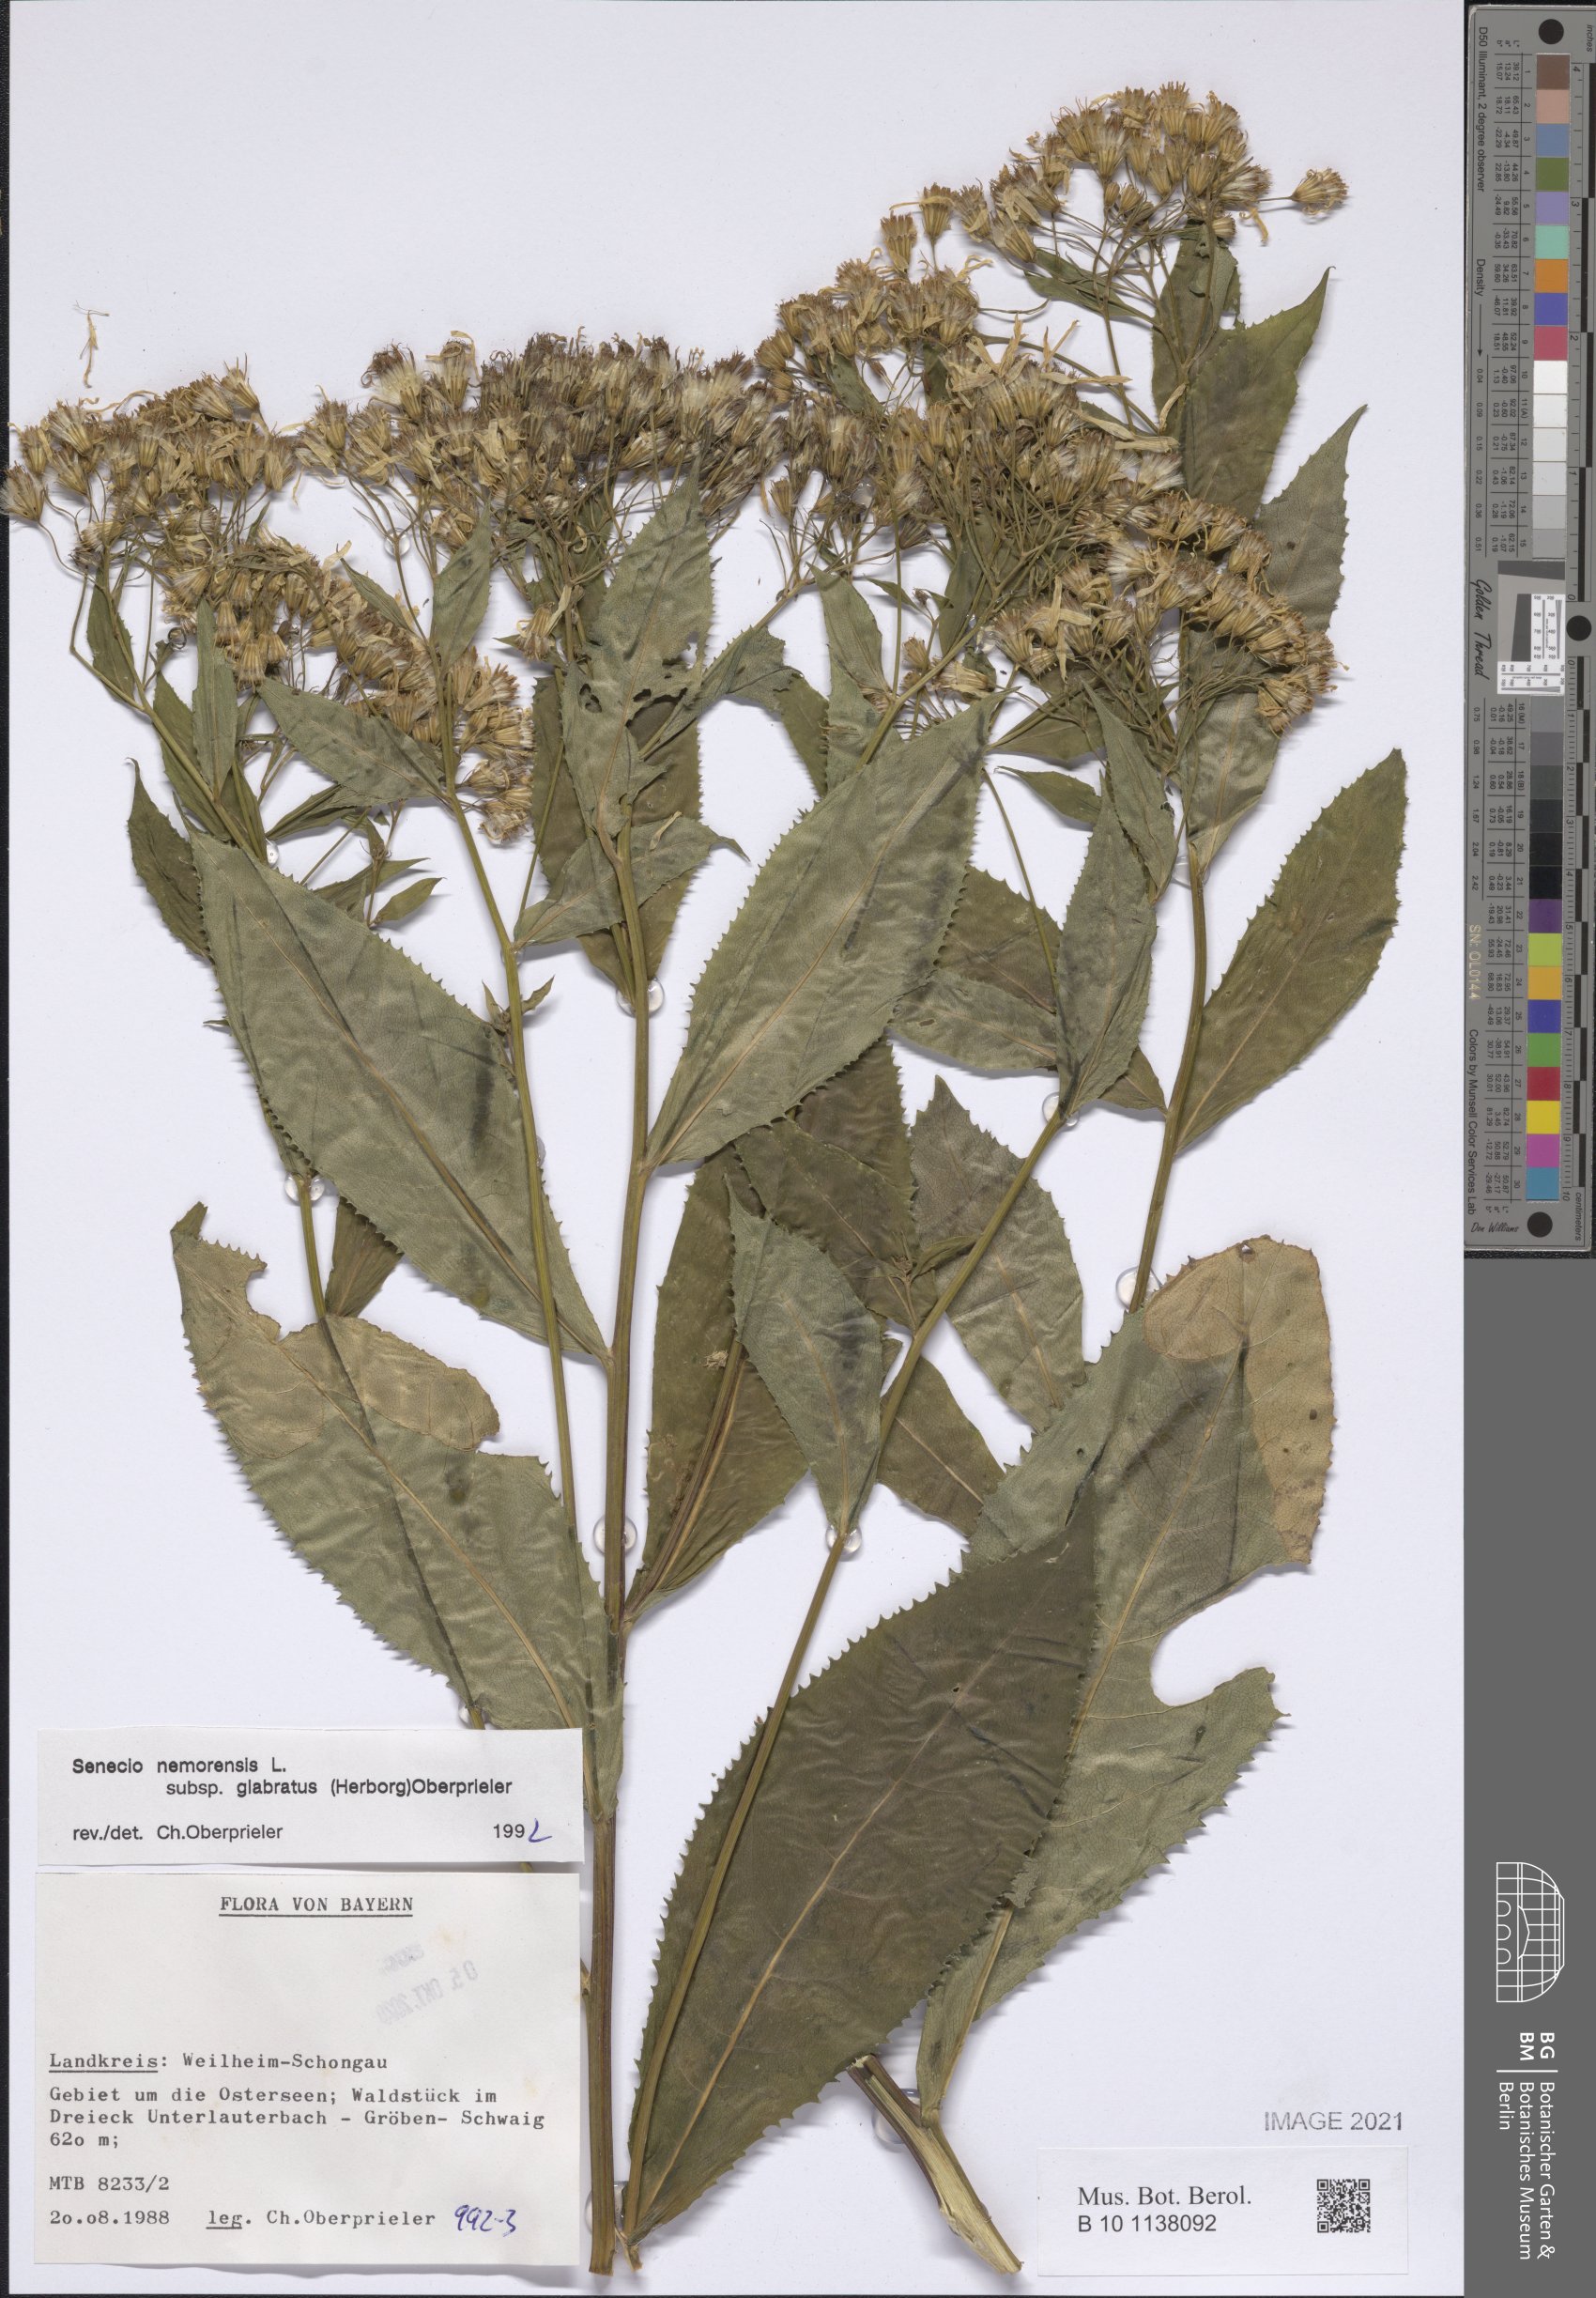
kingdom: Plantae
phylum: Tracheophyta
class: Magnoliopsida
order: Asterales
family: Asteraceae
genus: Senecio
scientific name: Senecio germanicus
